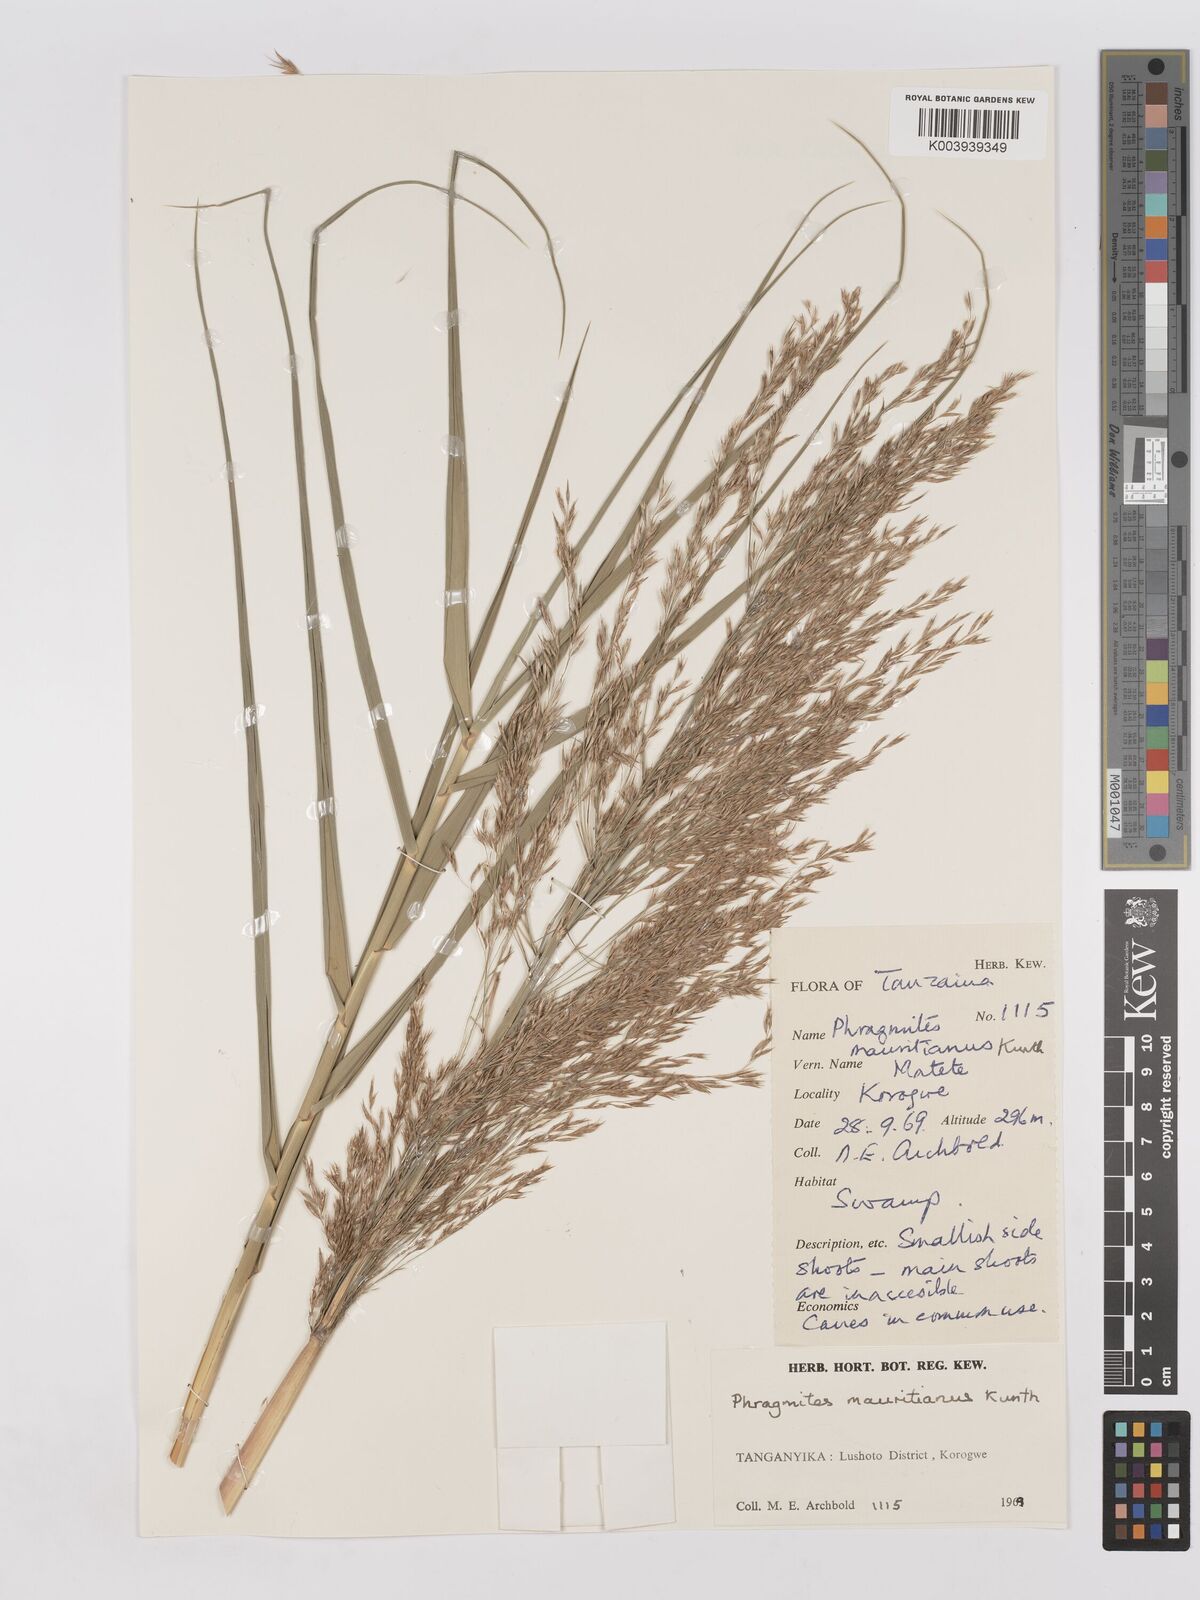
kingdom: Plantae
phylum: Tracheophyta
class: Liliopsida
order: Poales
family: Poaceae
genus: Phragmites
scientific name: Phragmites mauritianus
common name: Reed grass
